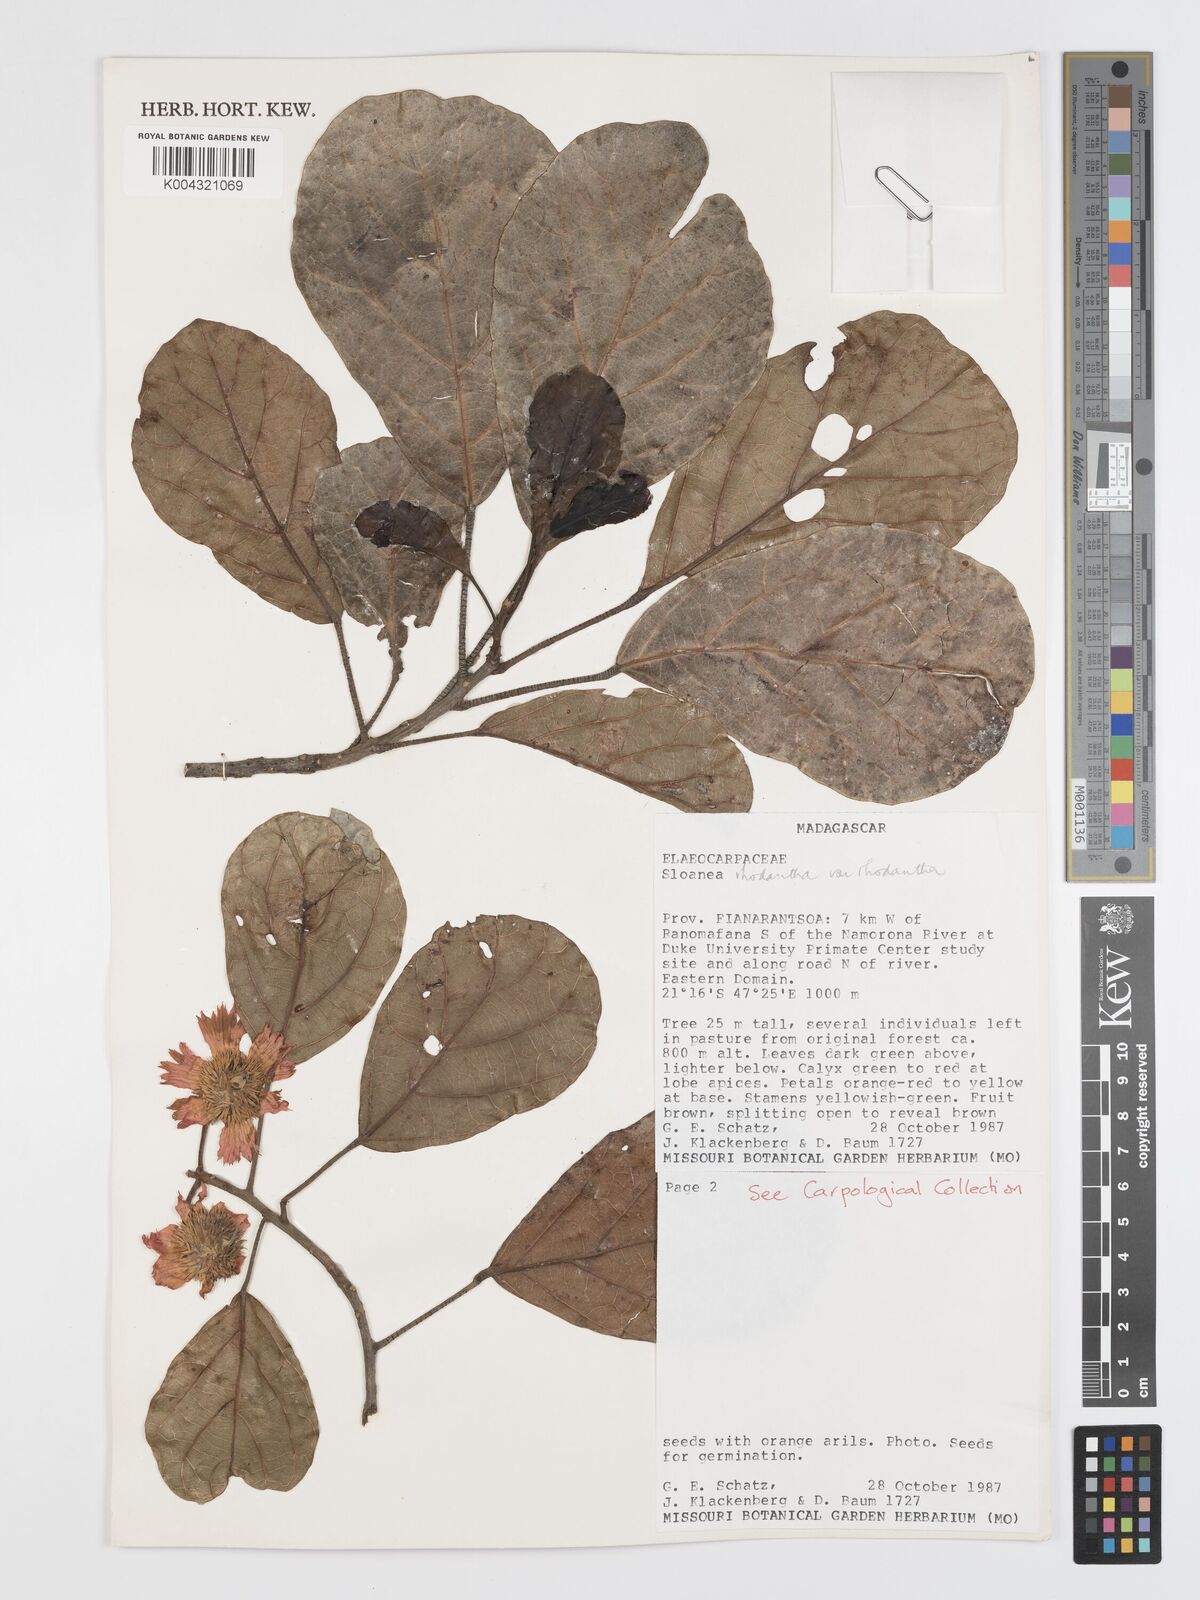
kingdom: Plantae
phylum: Tracheophyta
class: Magnoliopsida
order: Oxalidales
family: Elaeocarpaceae
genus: Sloanea
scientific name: Sloanea rhodantha
